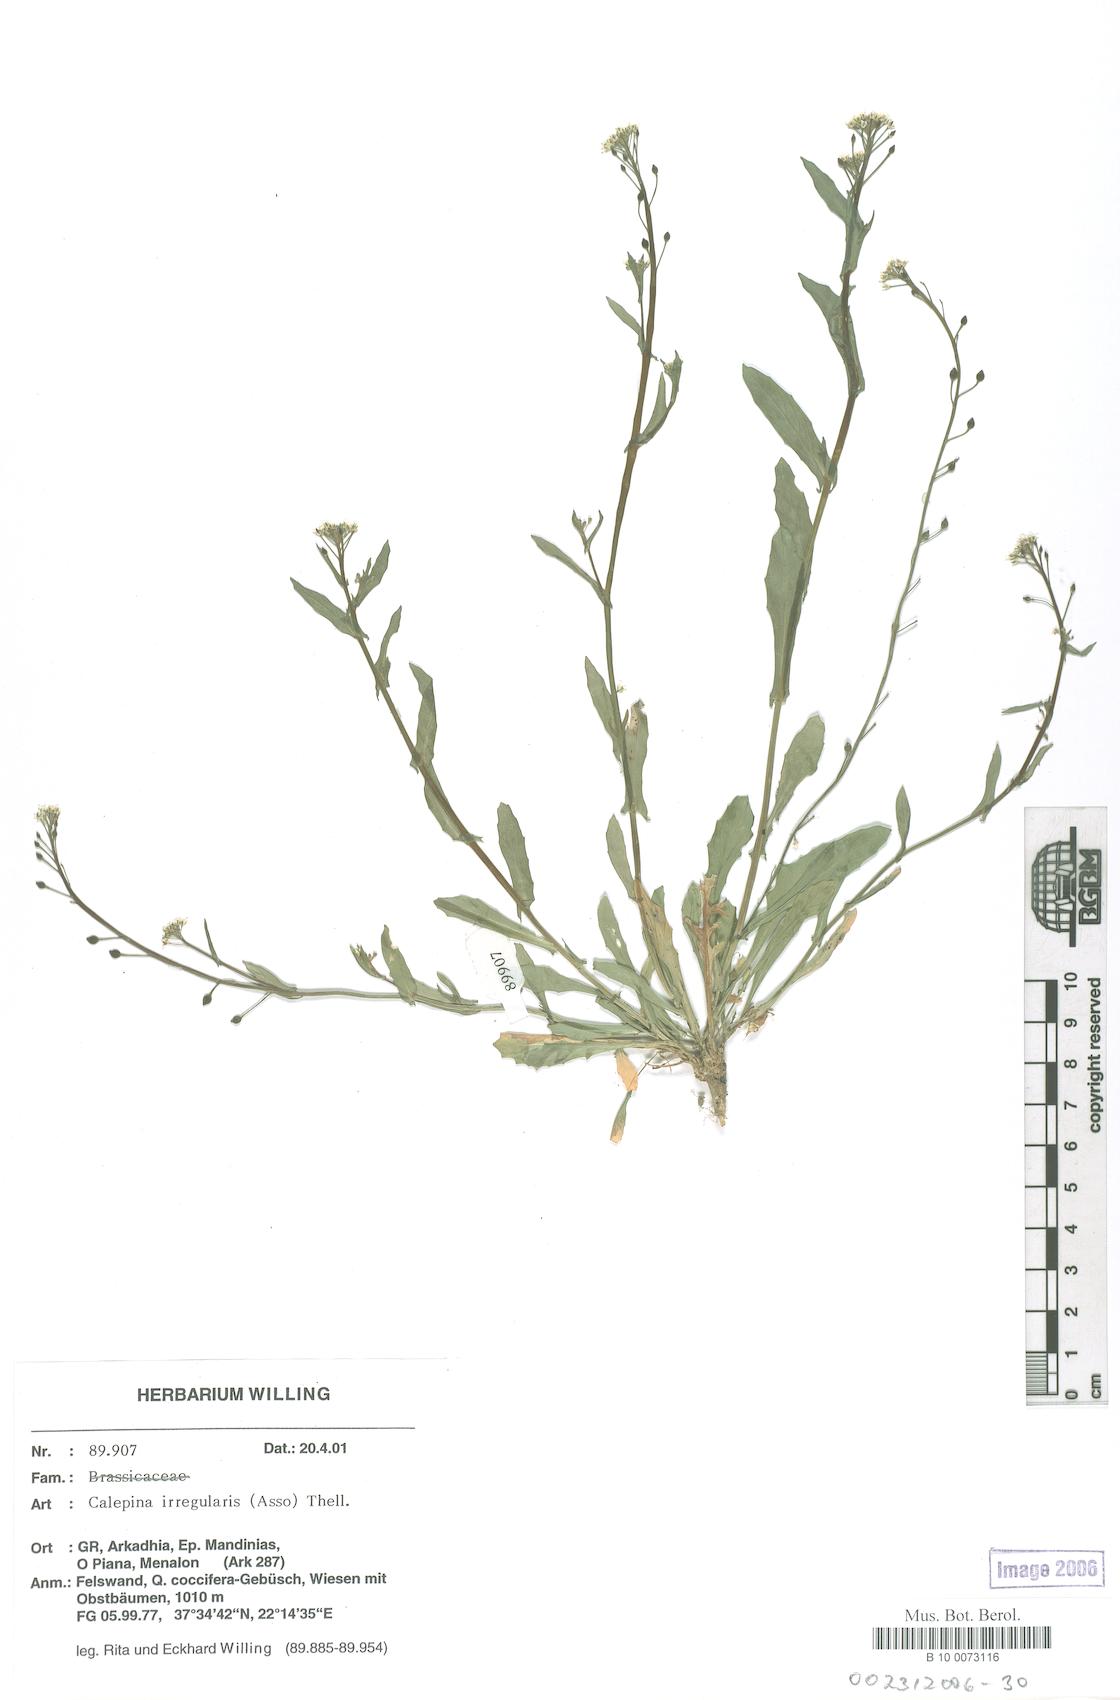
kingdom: Plantae
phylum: Tracheophyta
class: Magnoliopsida
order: Brassicales
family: Brassicaceae
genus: Calepina
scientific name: Calepina irregularis
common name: White ballmustard
